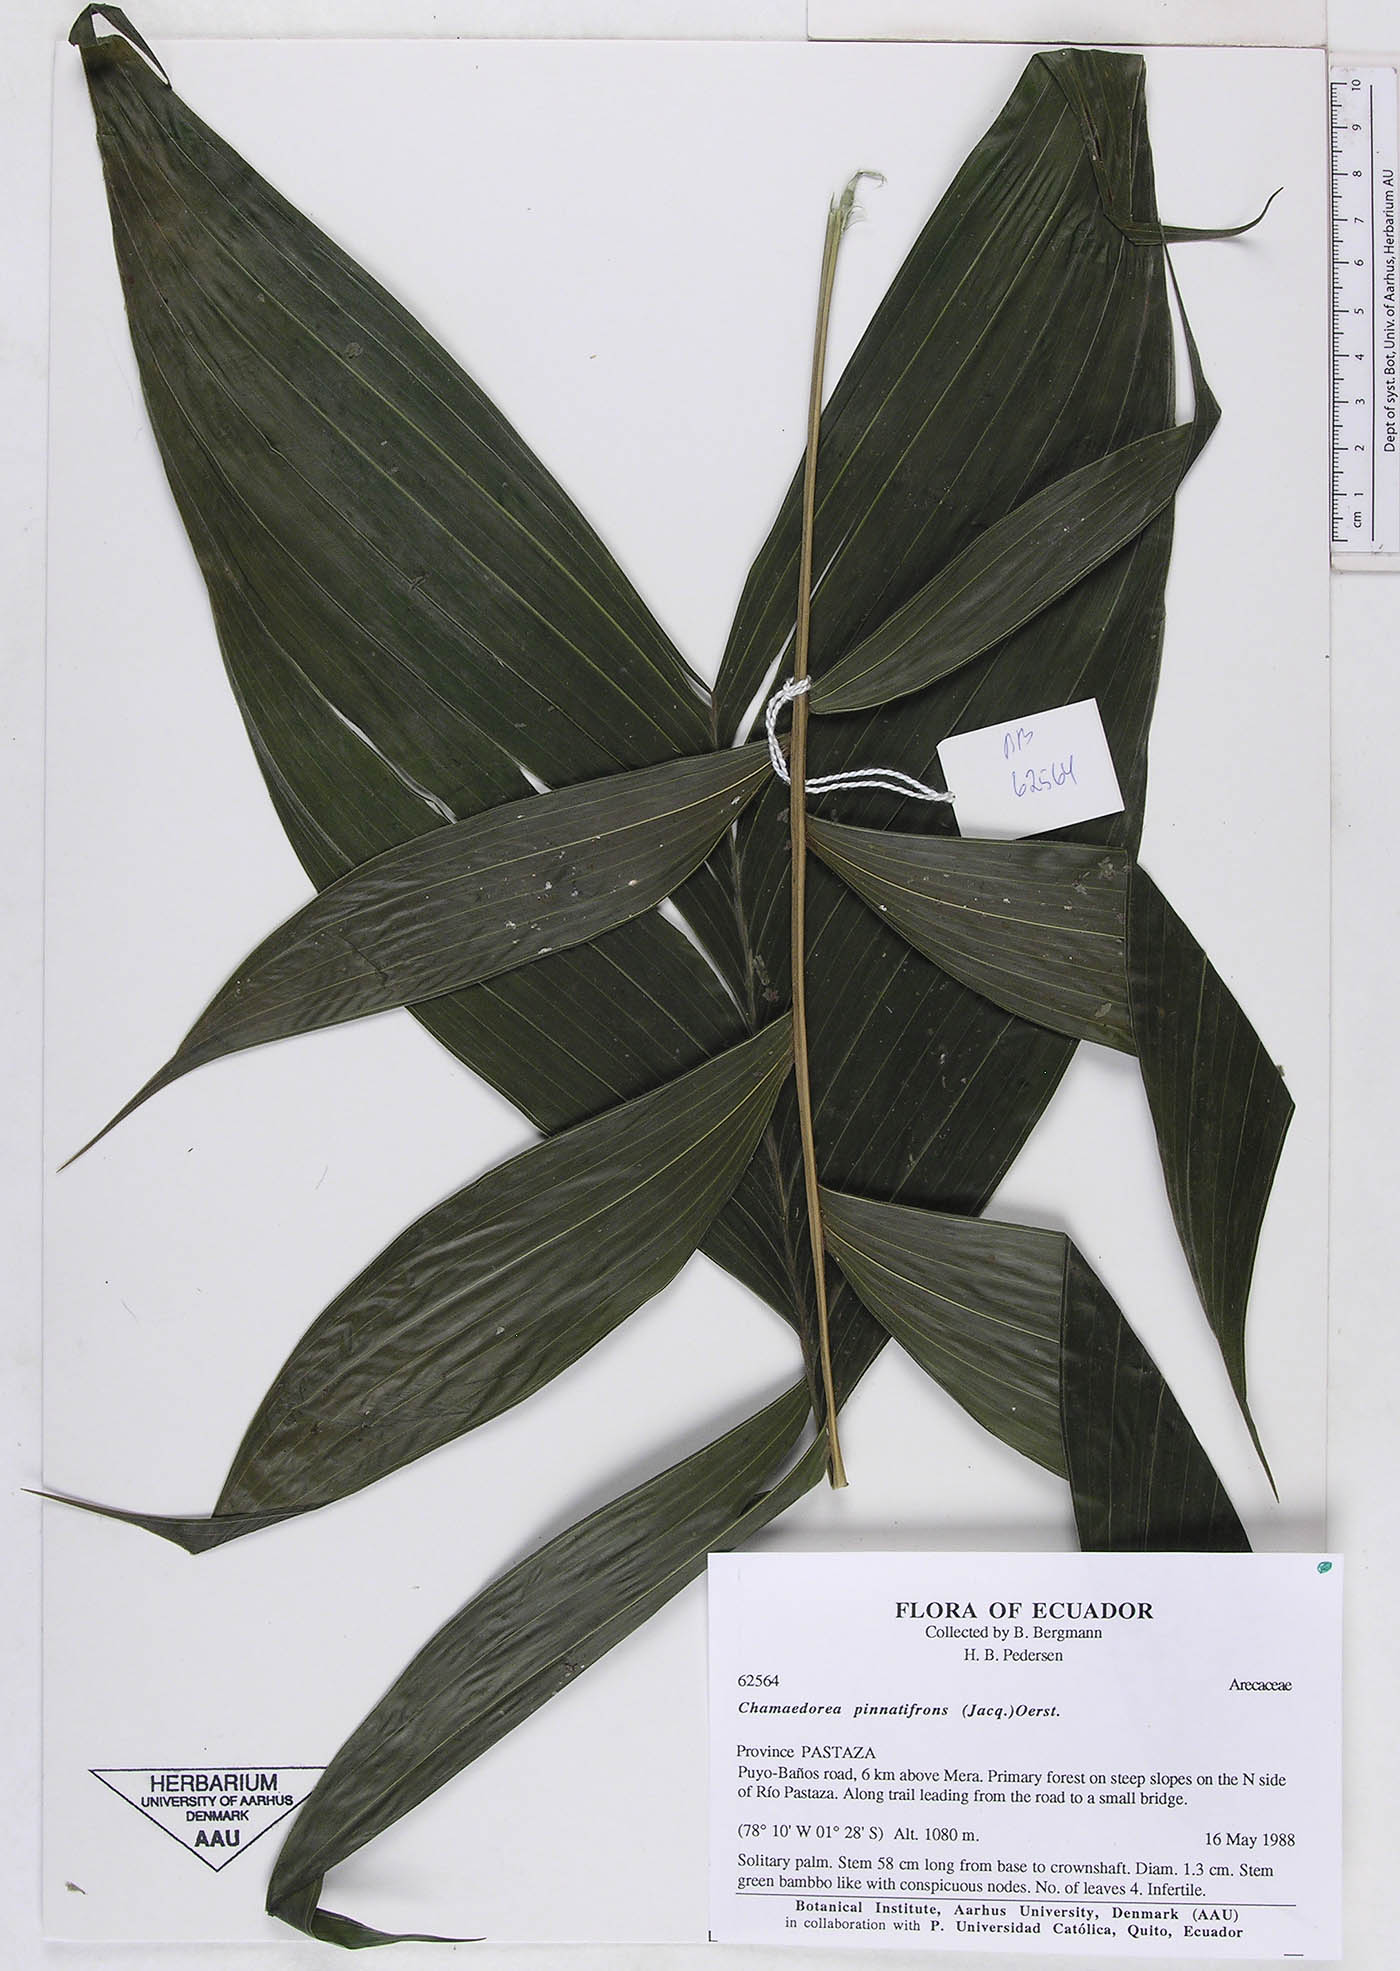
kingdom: Plantae
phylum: Tracheophyta
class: Liliopsida
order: Arecales
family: Arecaceae
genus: Chamaedorea
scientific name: Chamaedorea pinnatifrons
